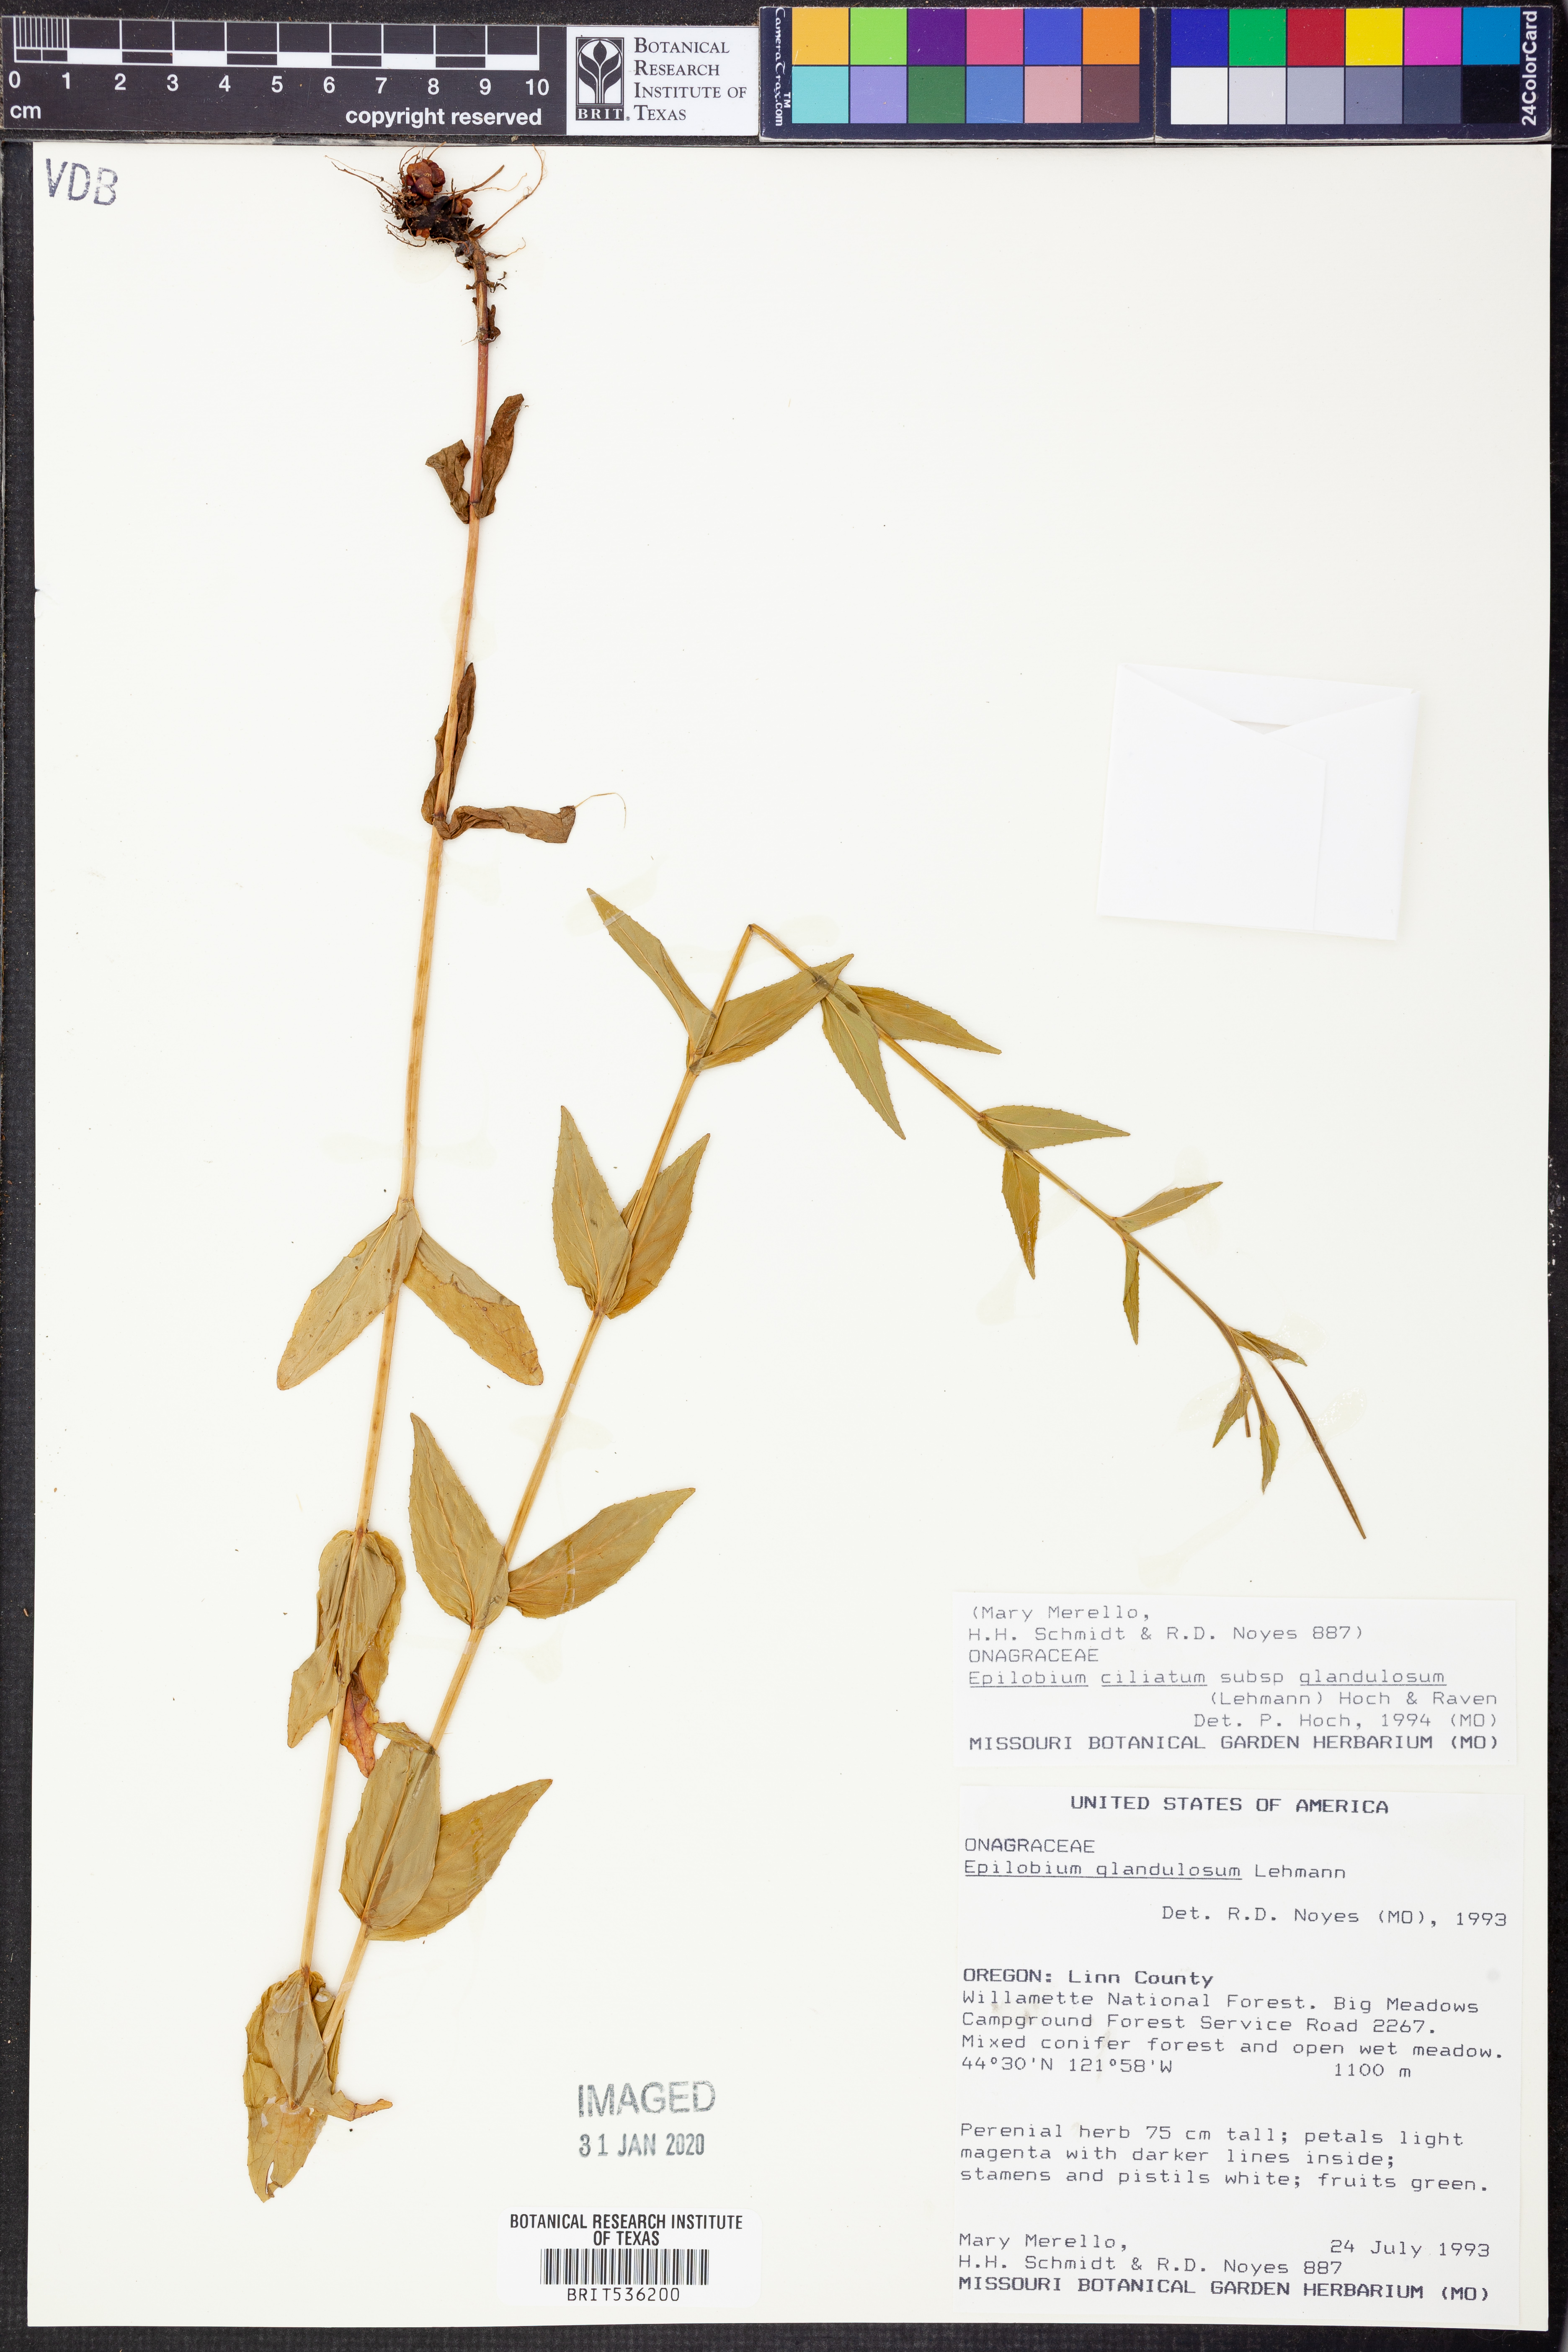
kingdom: Plantae
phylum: Tracheophyta
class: Magnoliopsida
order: Myrtales
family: Onagraceae
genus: Epilobium
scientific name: Epilobium ciliatum
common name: American willowherb
